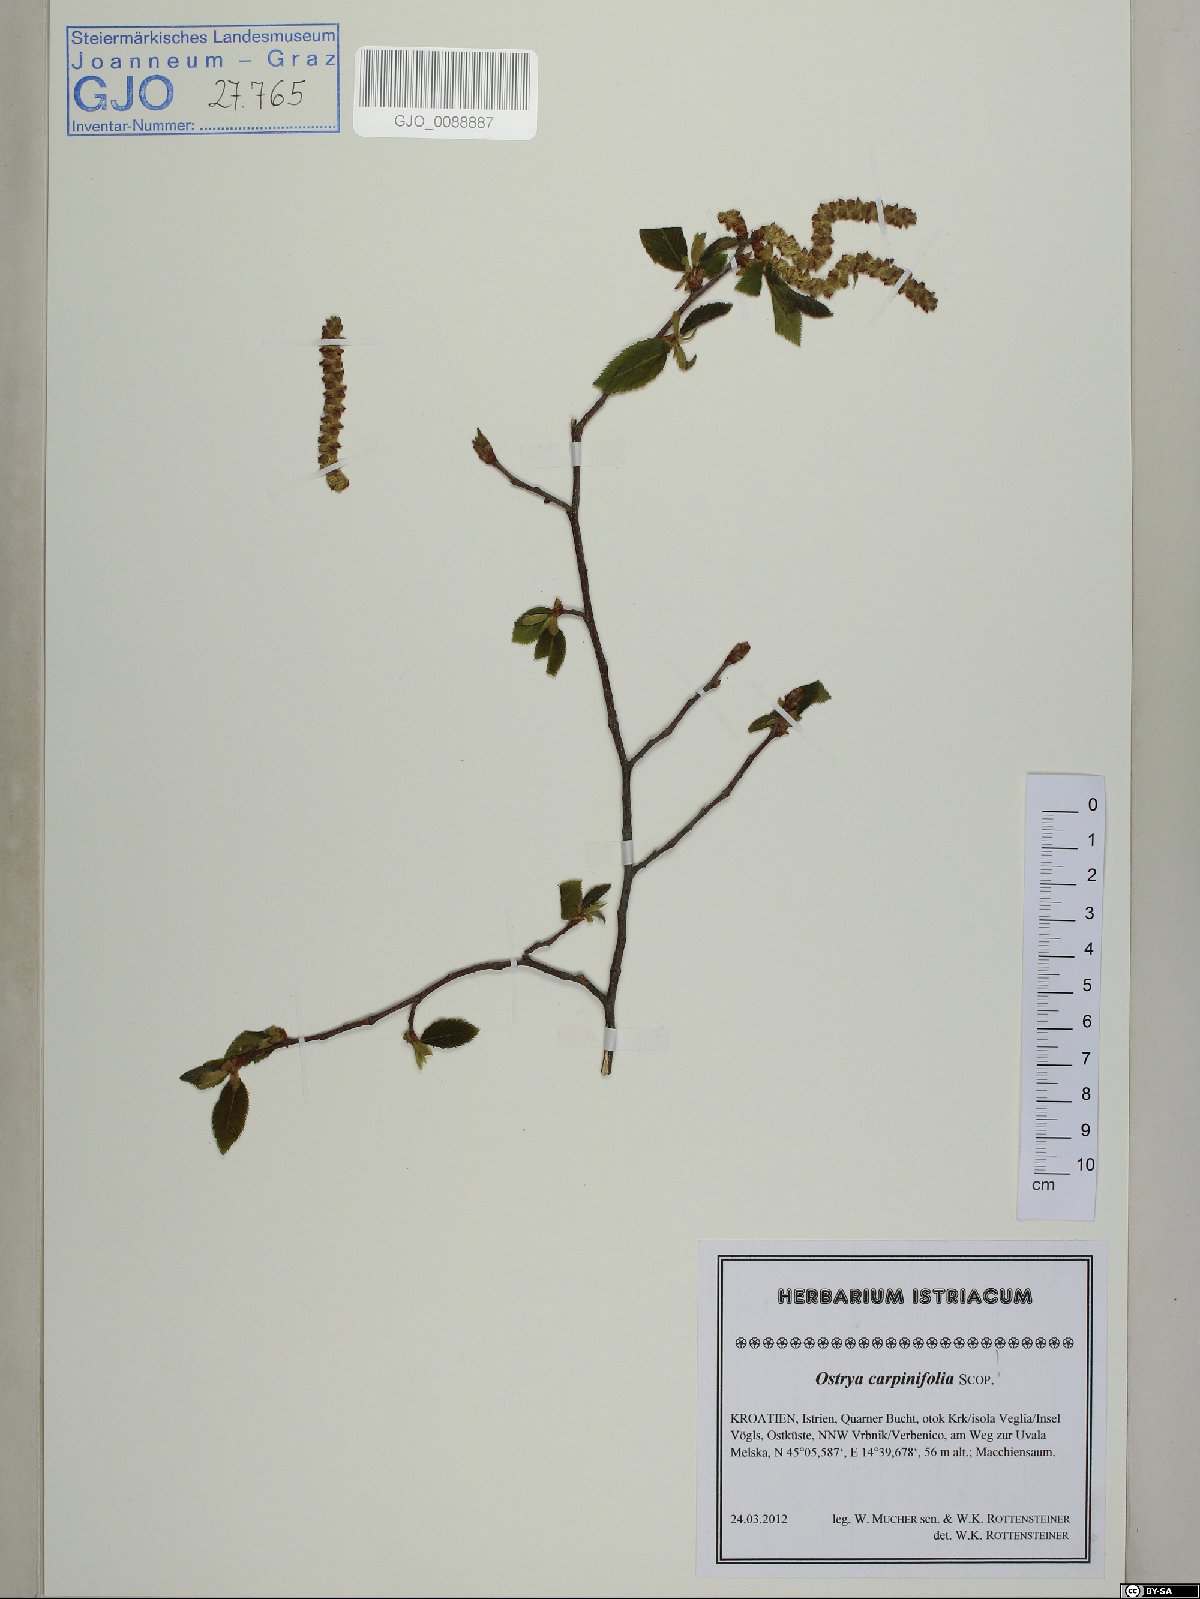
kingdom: Plantae
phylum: Tracheophyta
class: Magnoliopsida
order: Fagales
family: Betulaceae
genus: Ostrya
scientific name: Ostrya carpinifolia
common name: European hop-hornbeam
